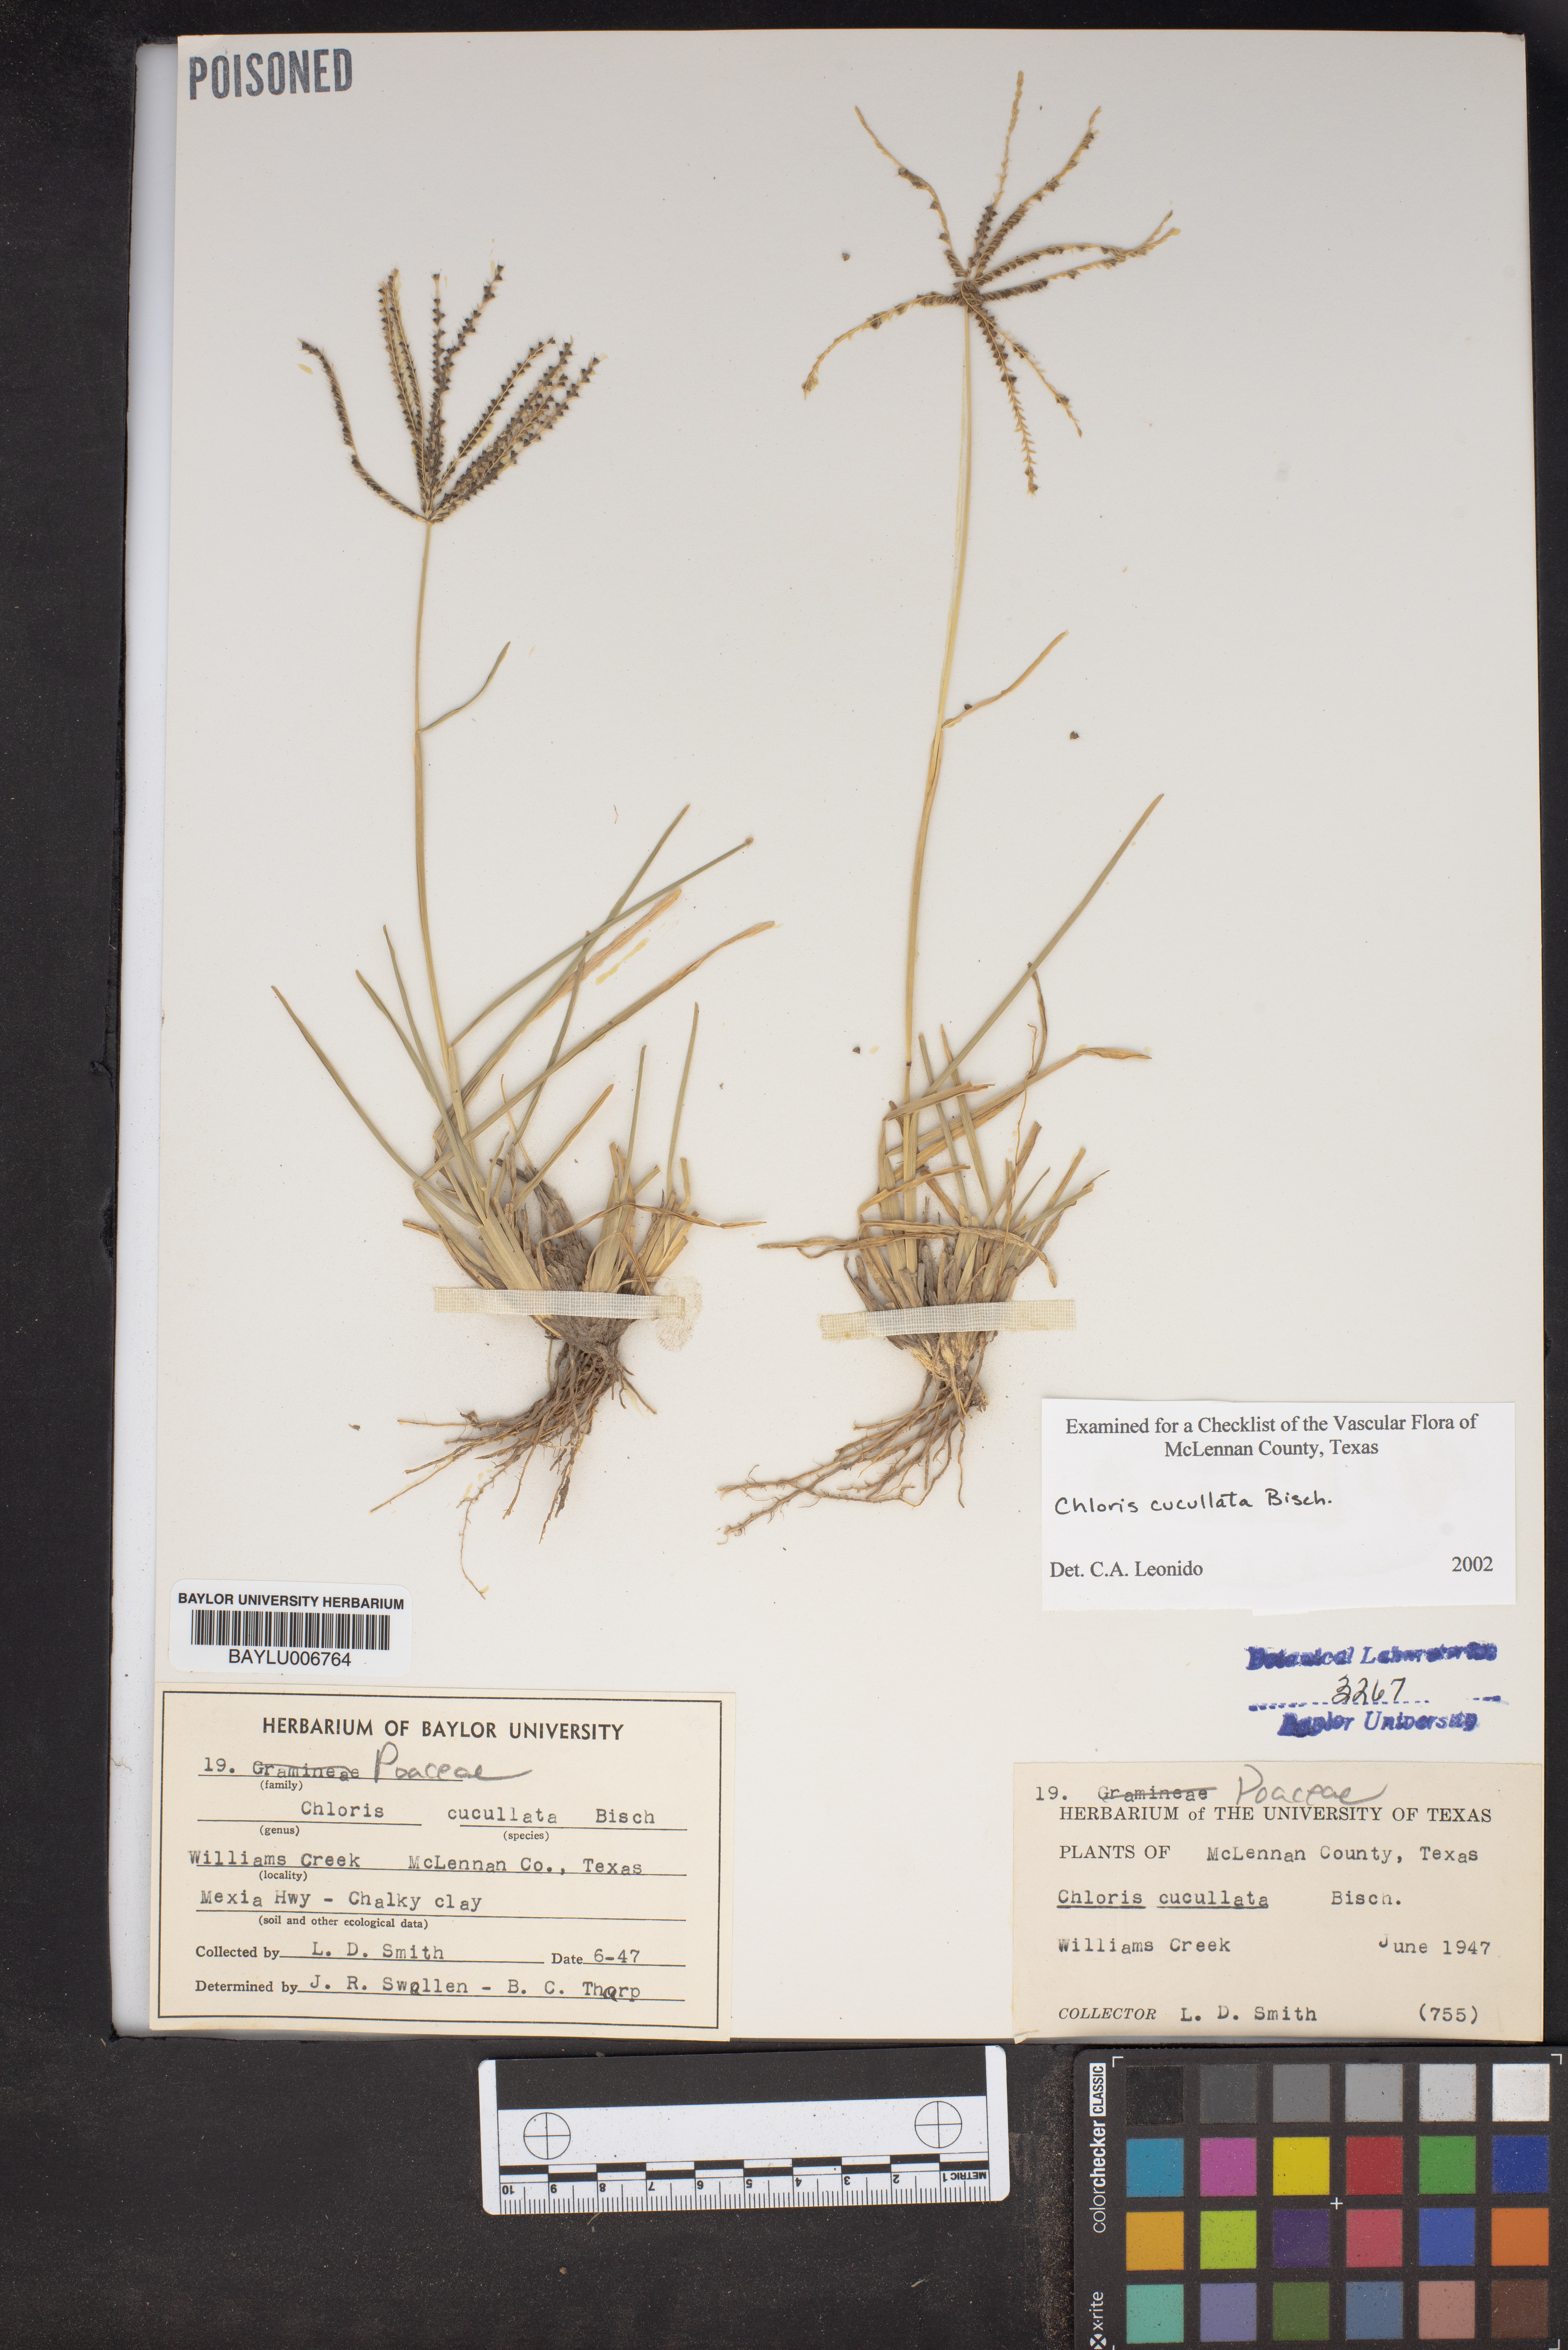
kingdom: Plantae
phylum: Tracheophyta
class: Liliopsida
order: Poales
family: Poaceae
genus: Chloris
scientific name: Chloris cucullata
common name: Hooded windmill grass
